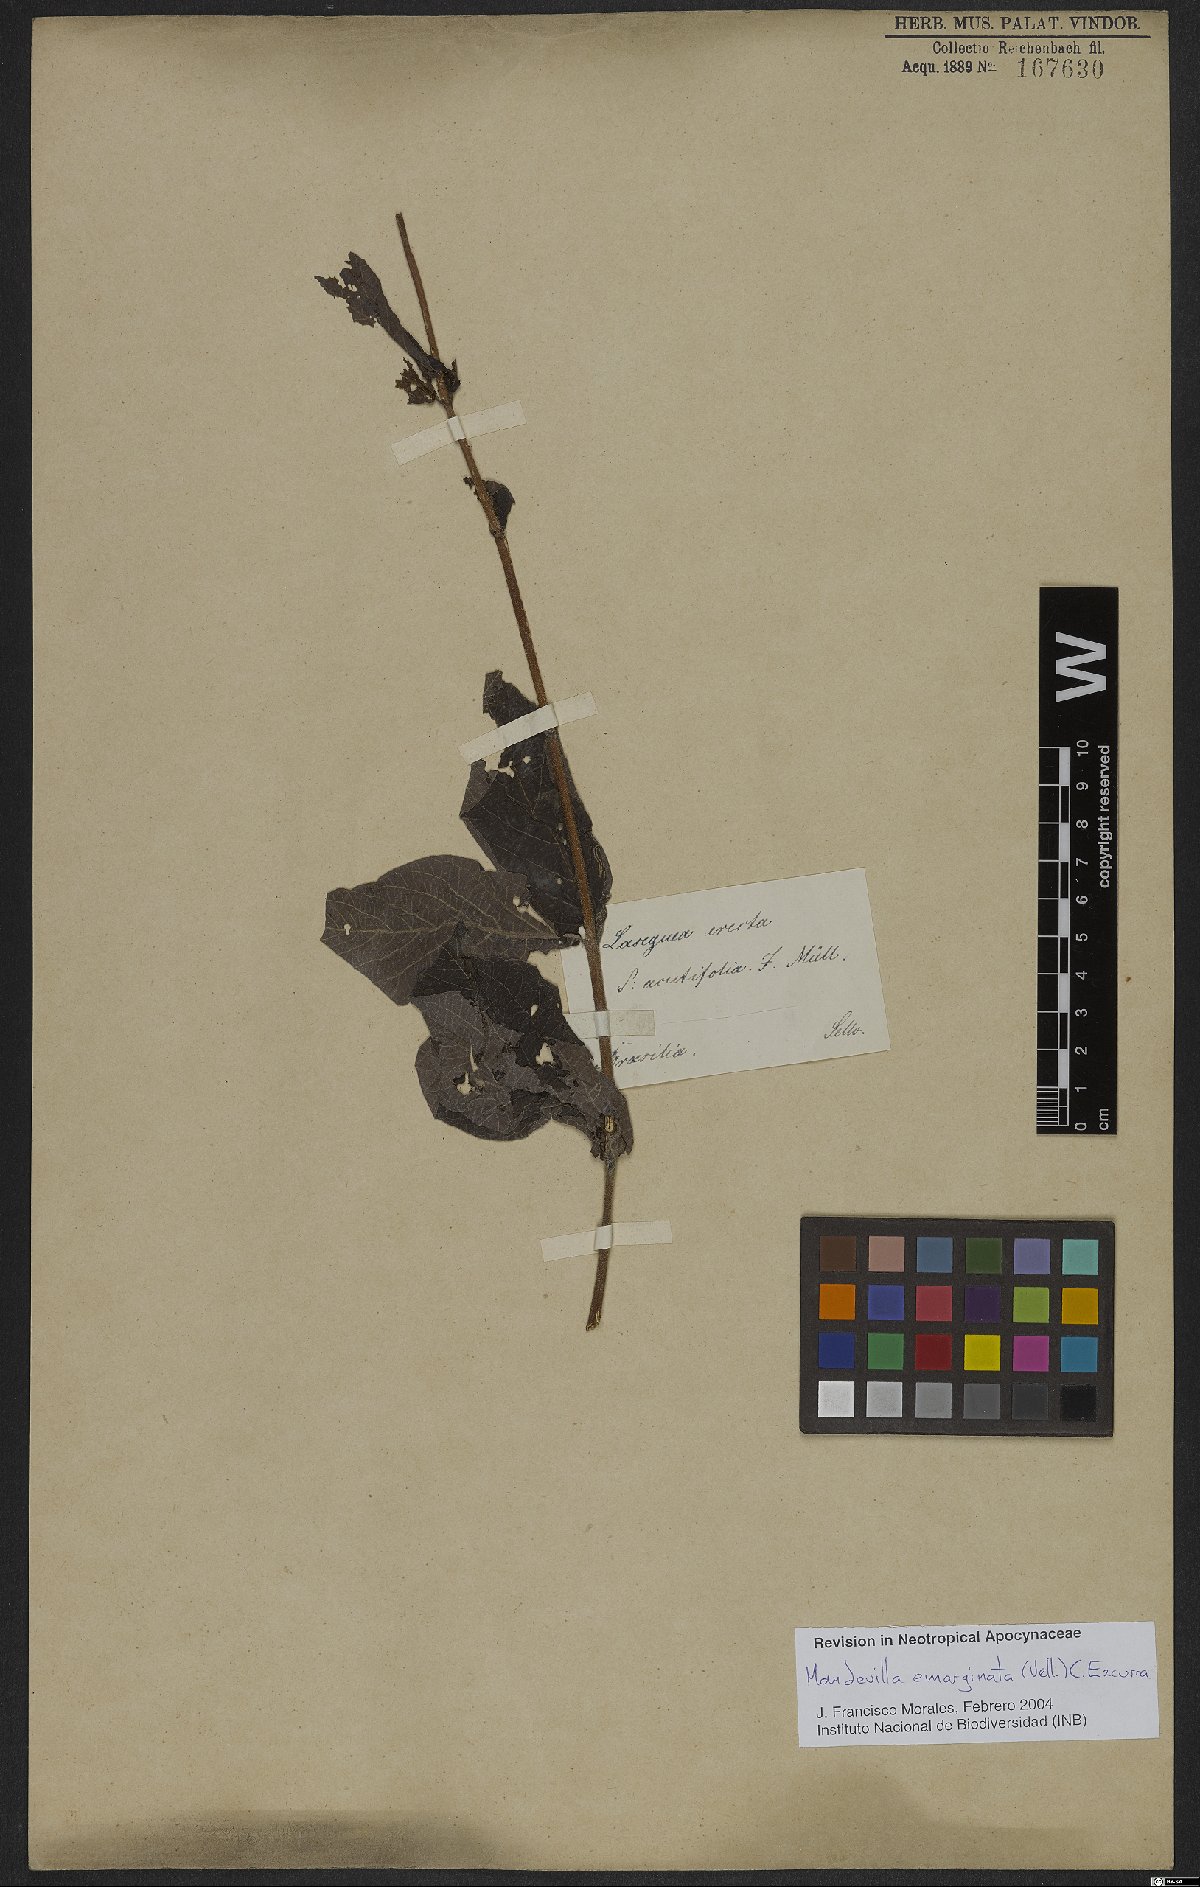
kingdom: Plantae
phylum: Tracheophyta
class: Magnoliopsida
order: Gentianales
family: Apocynaceae
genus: Mandevilla
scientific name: Mandevilla emarginata
